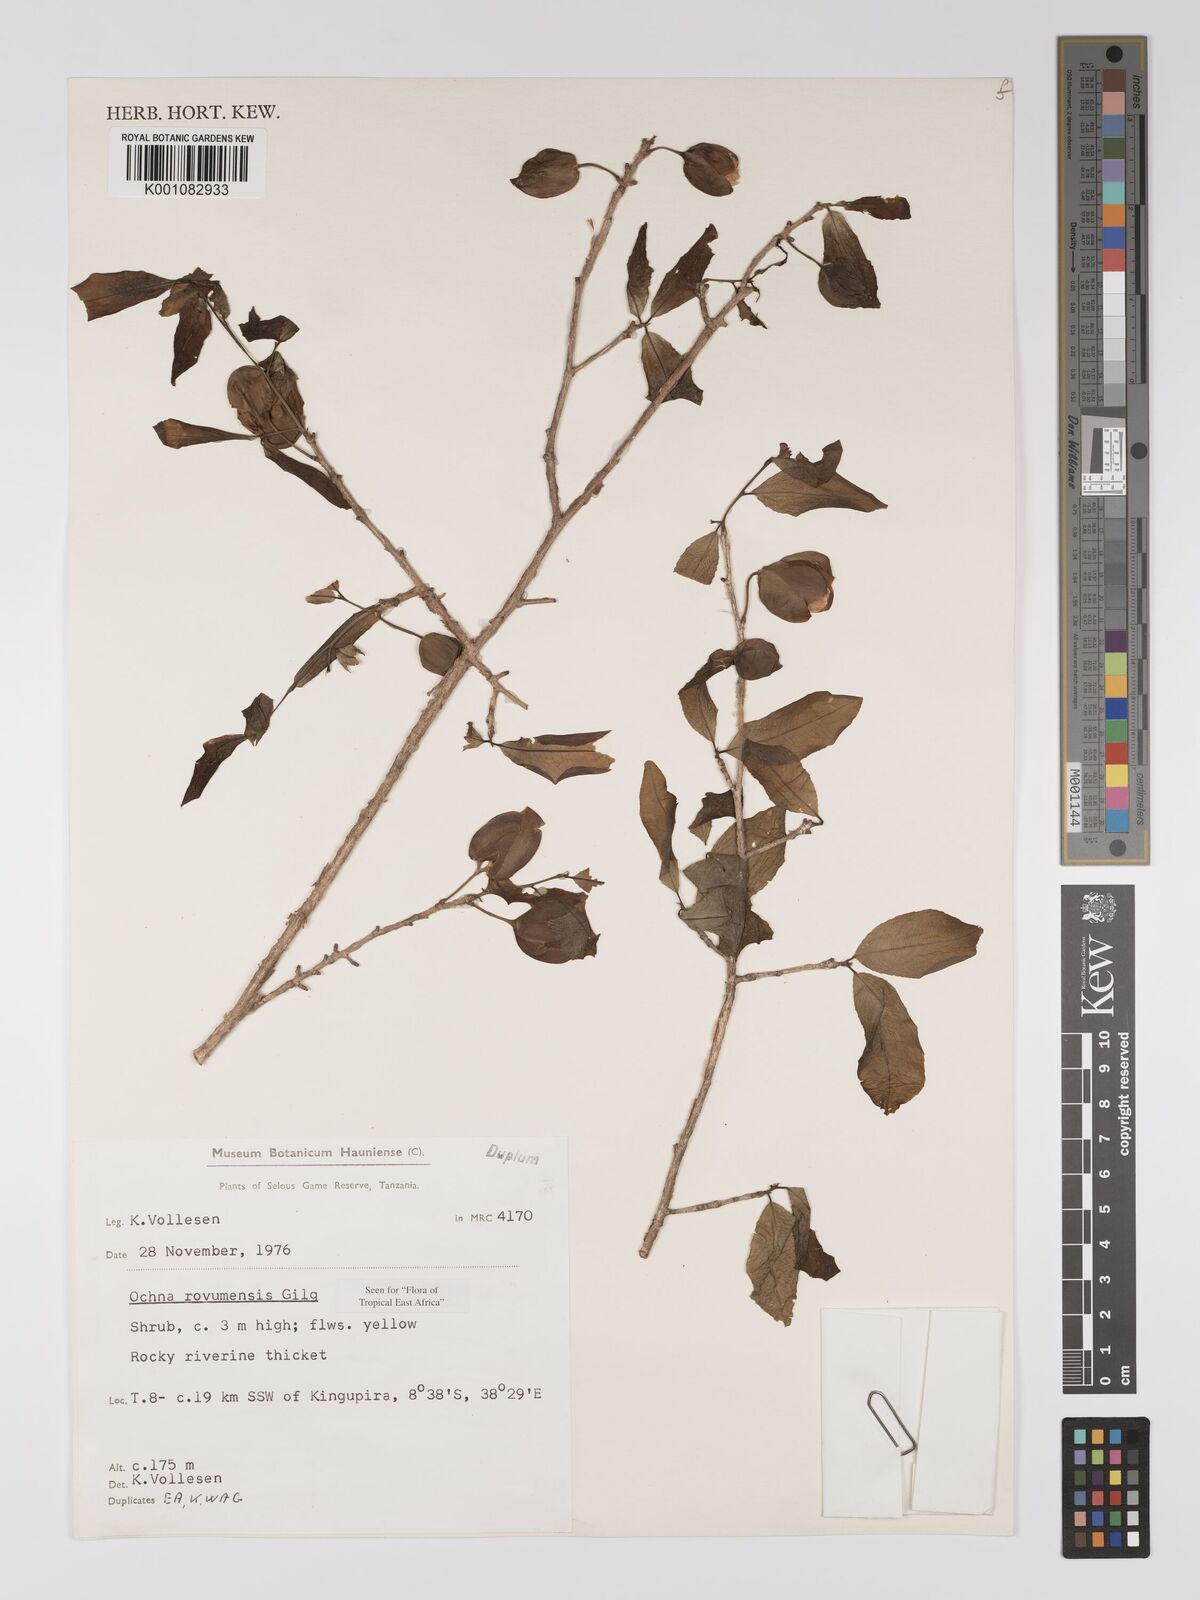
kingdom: Plantae
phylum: Tracheophyta
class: Magnoliopsida
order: Malpighiales
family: Ochnaceae
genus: Ochna
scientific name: Ochna rovumensis
